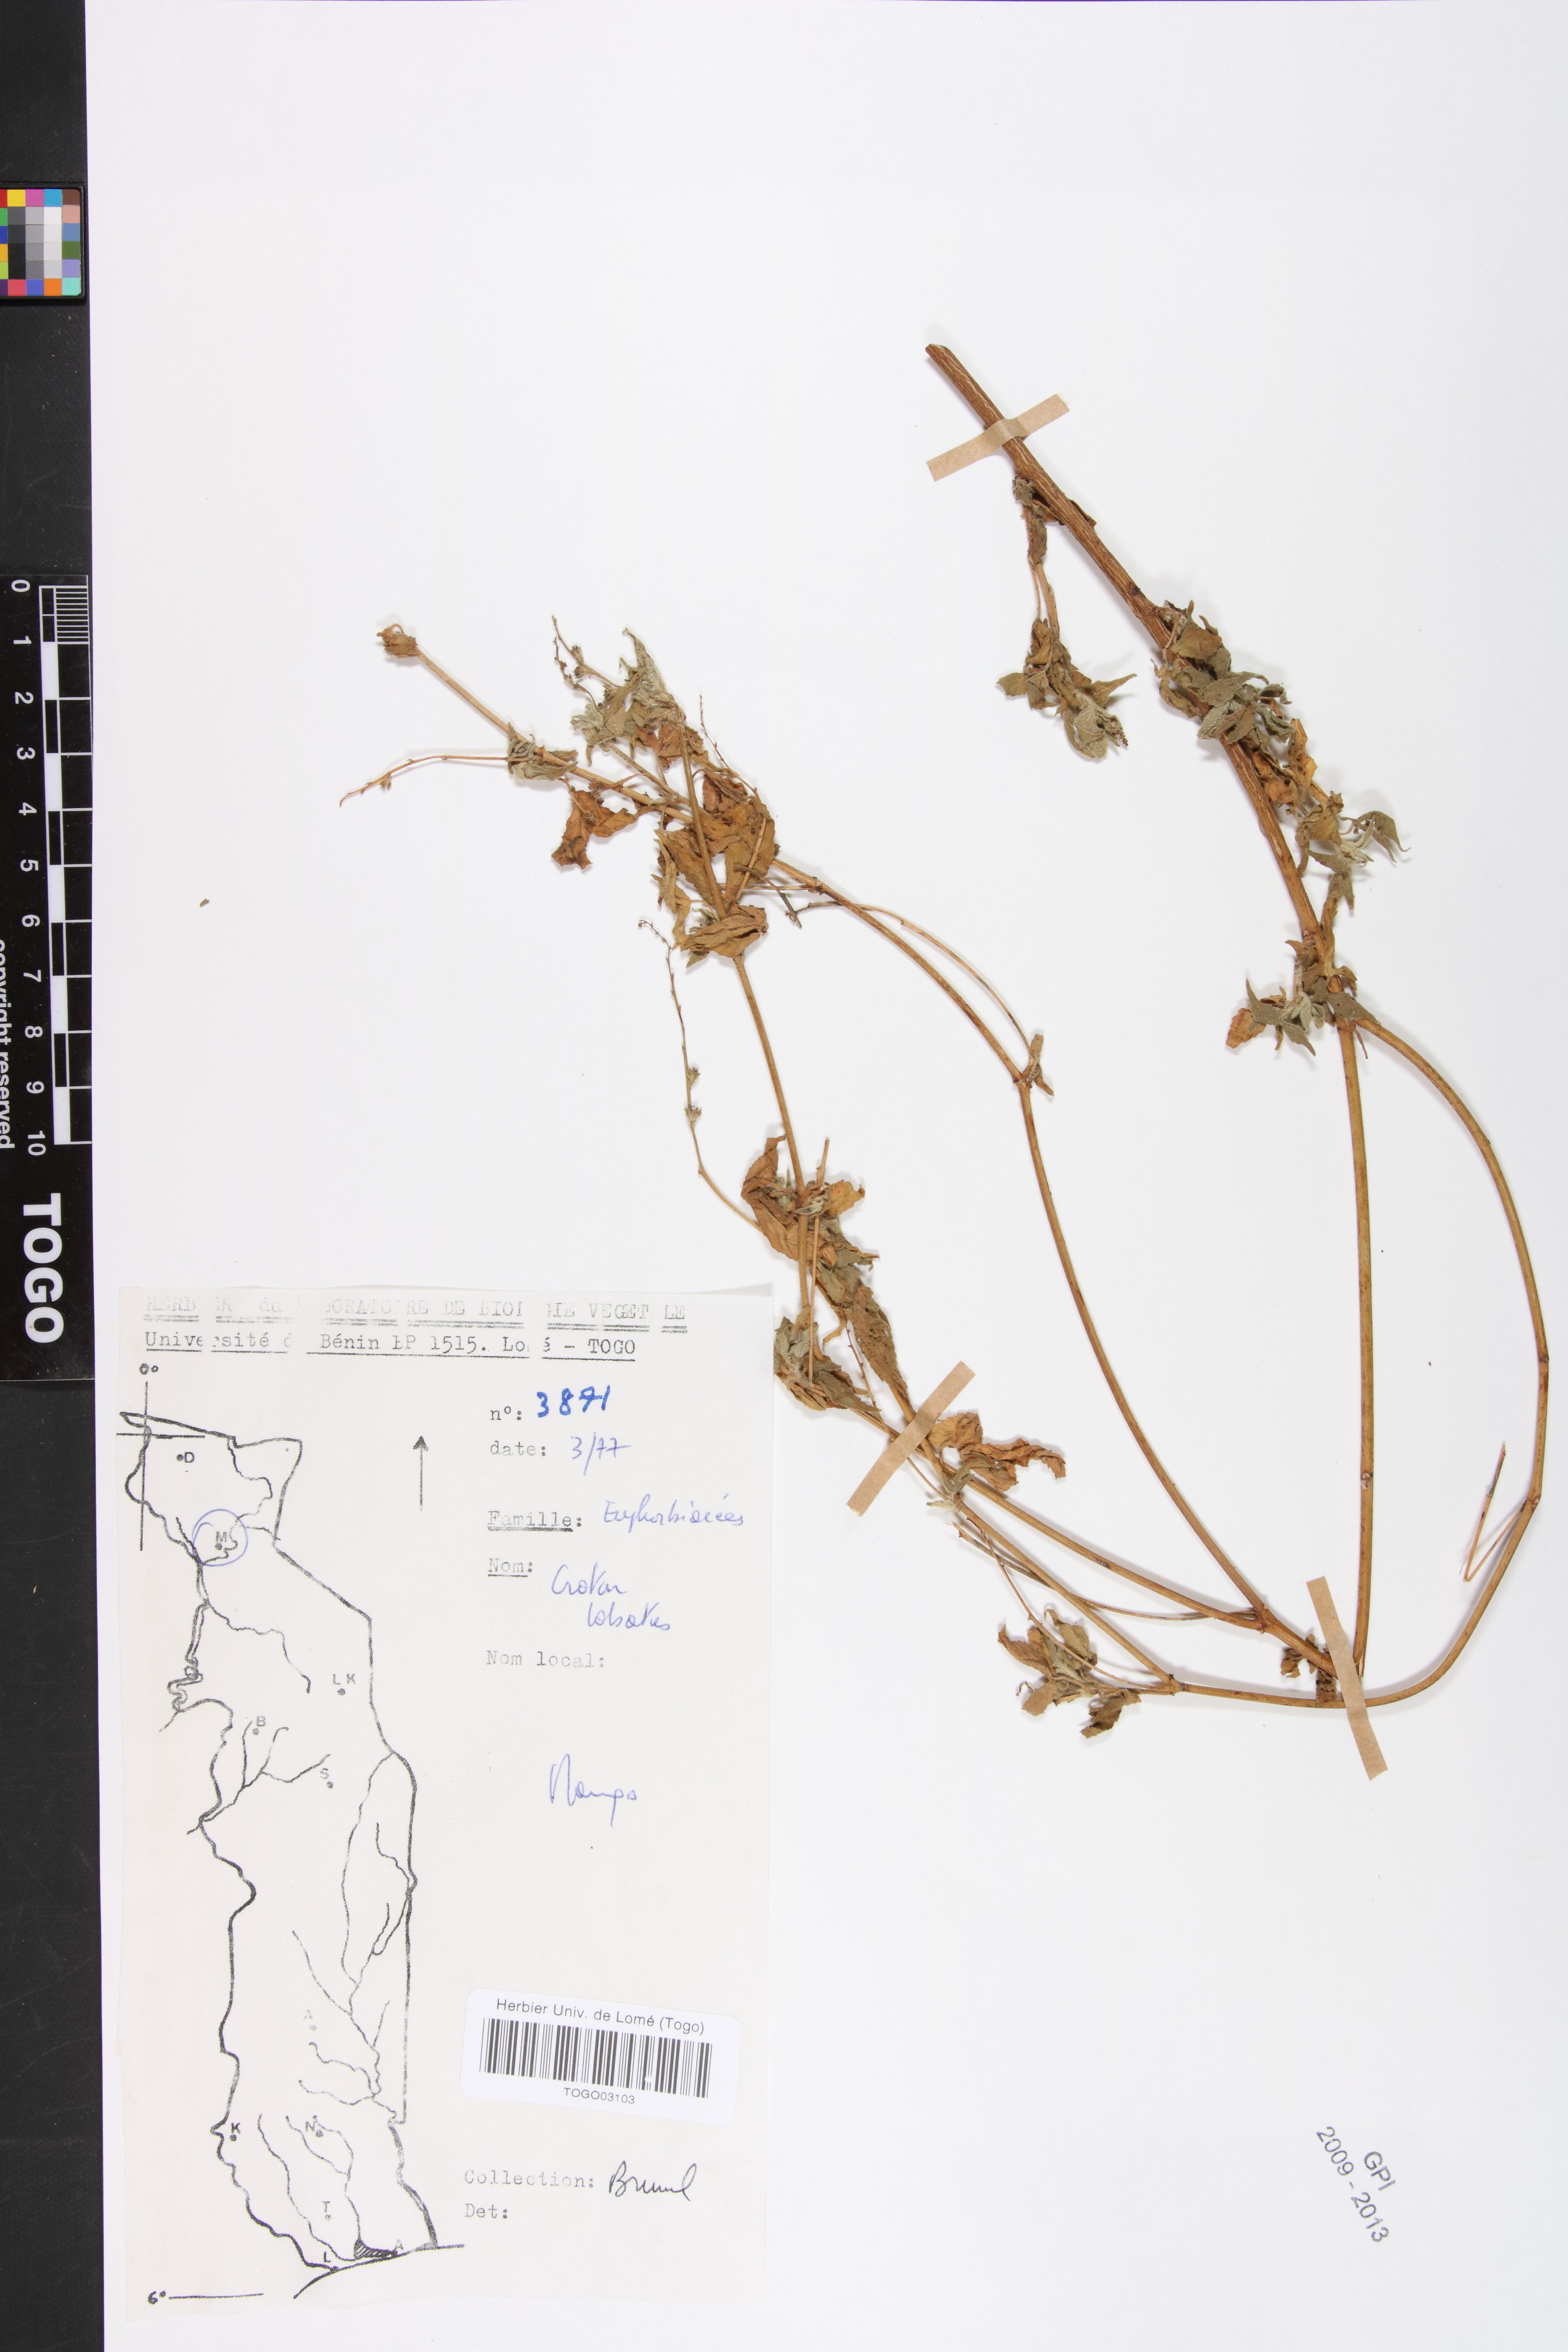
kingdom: Plantae
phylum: Tracheophyta
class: Magnoliopsida
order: Malpighiales
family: Euphorbiaceae
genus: Astraea
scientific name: Astraea lobata
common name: Lobed croton
